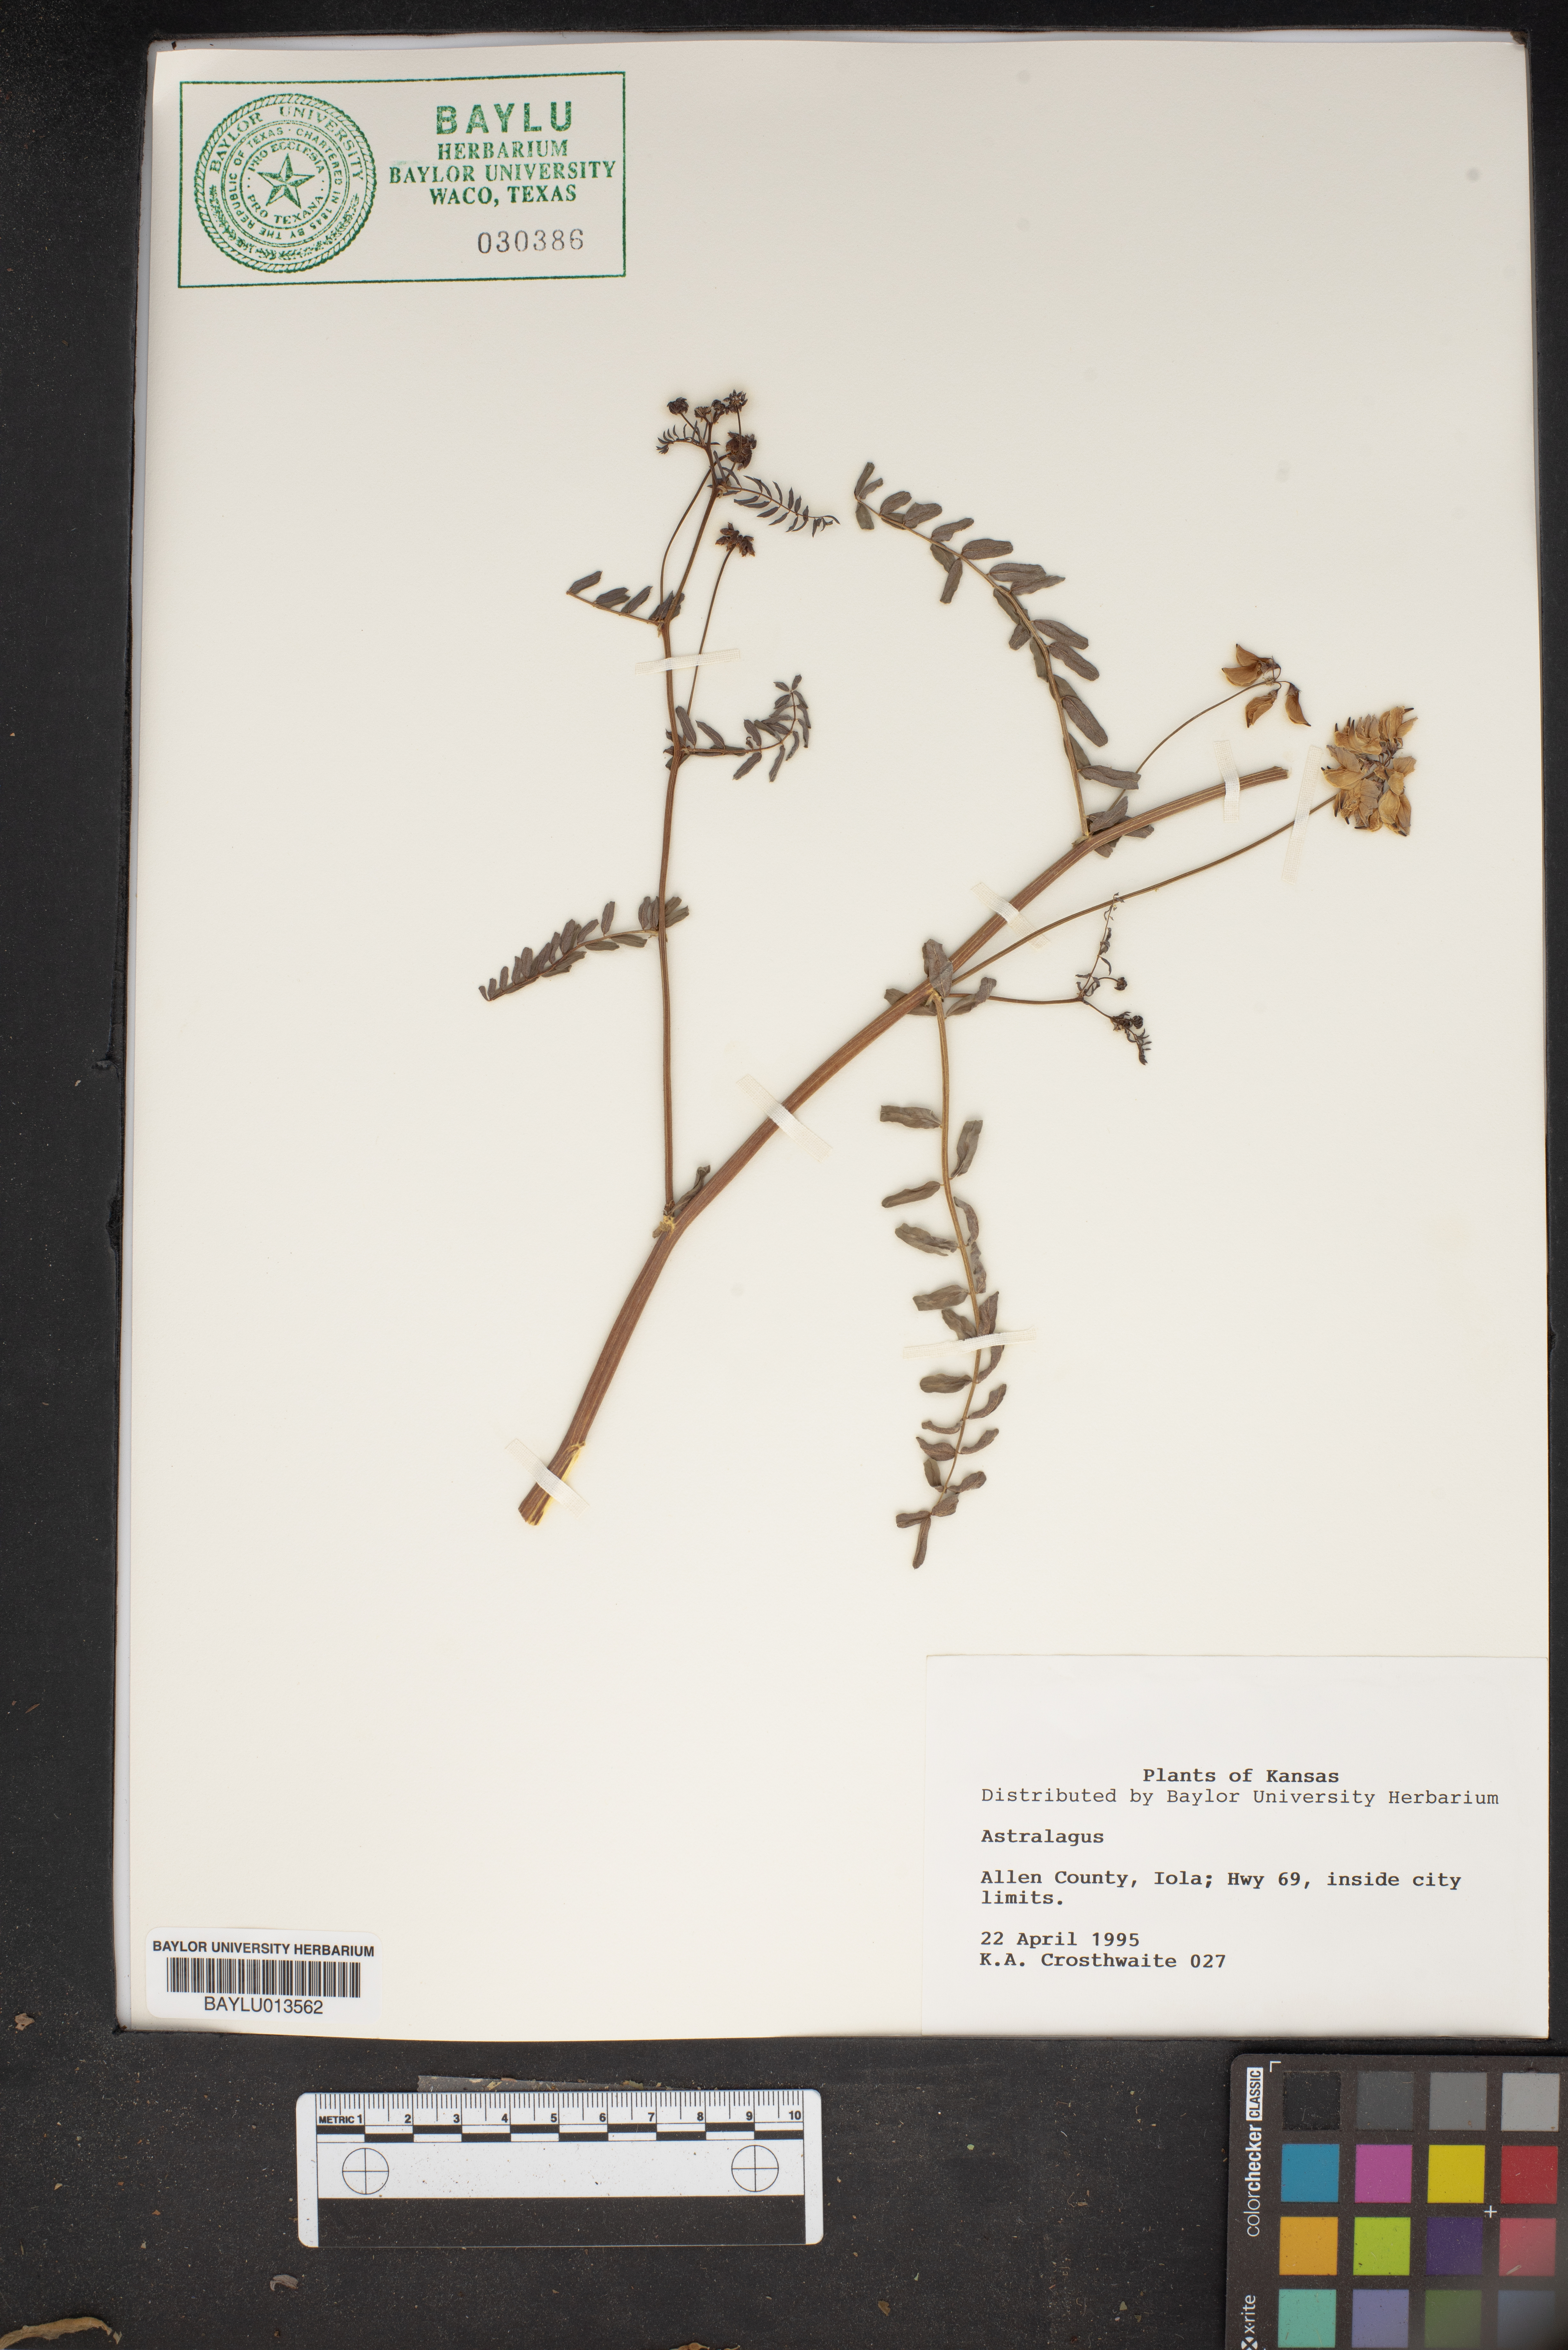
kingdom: Plantae
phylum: Tracheophyta
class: Magnoliopsida
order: Fabales
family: Fabaceae
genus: Astragalus
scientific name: Astragalus
